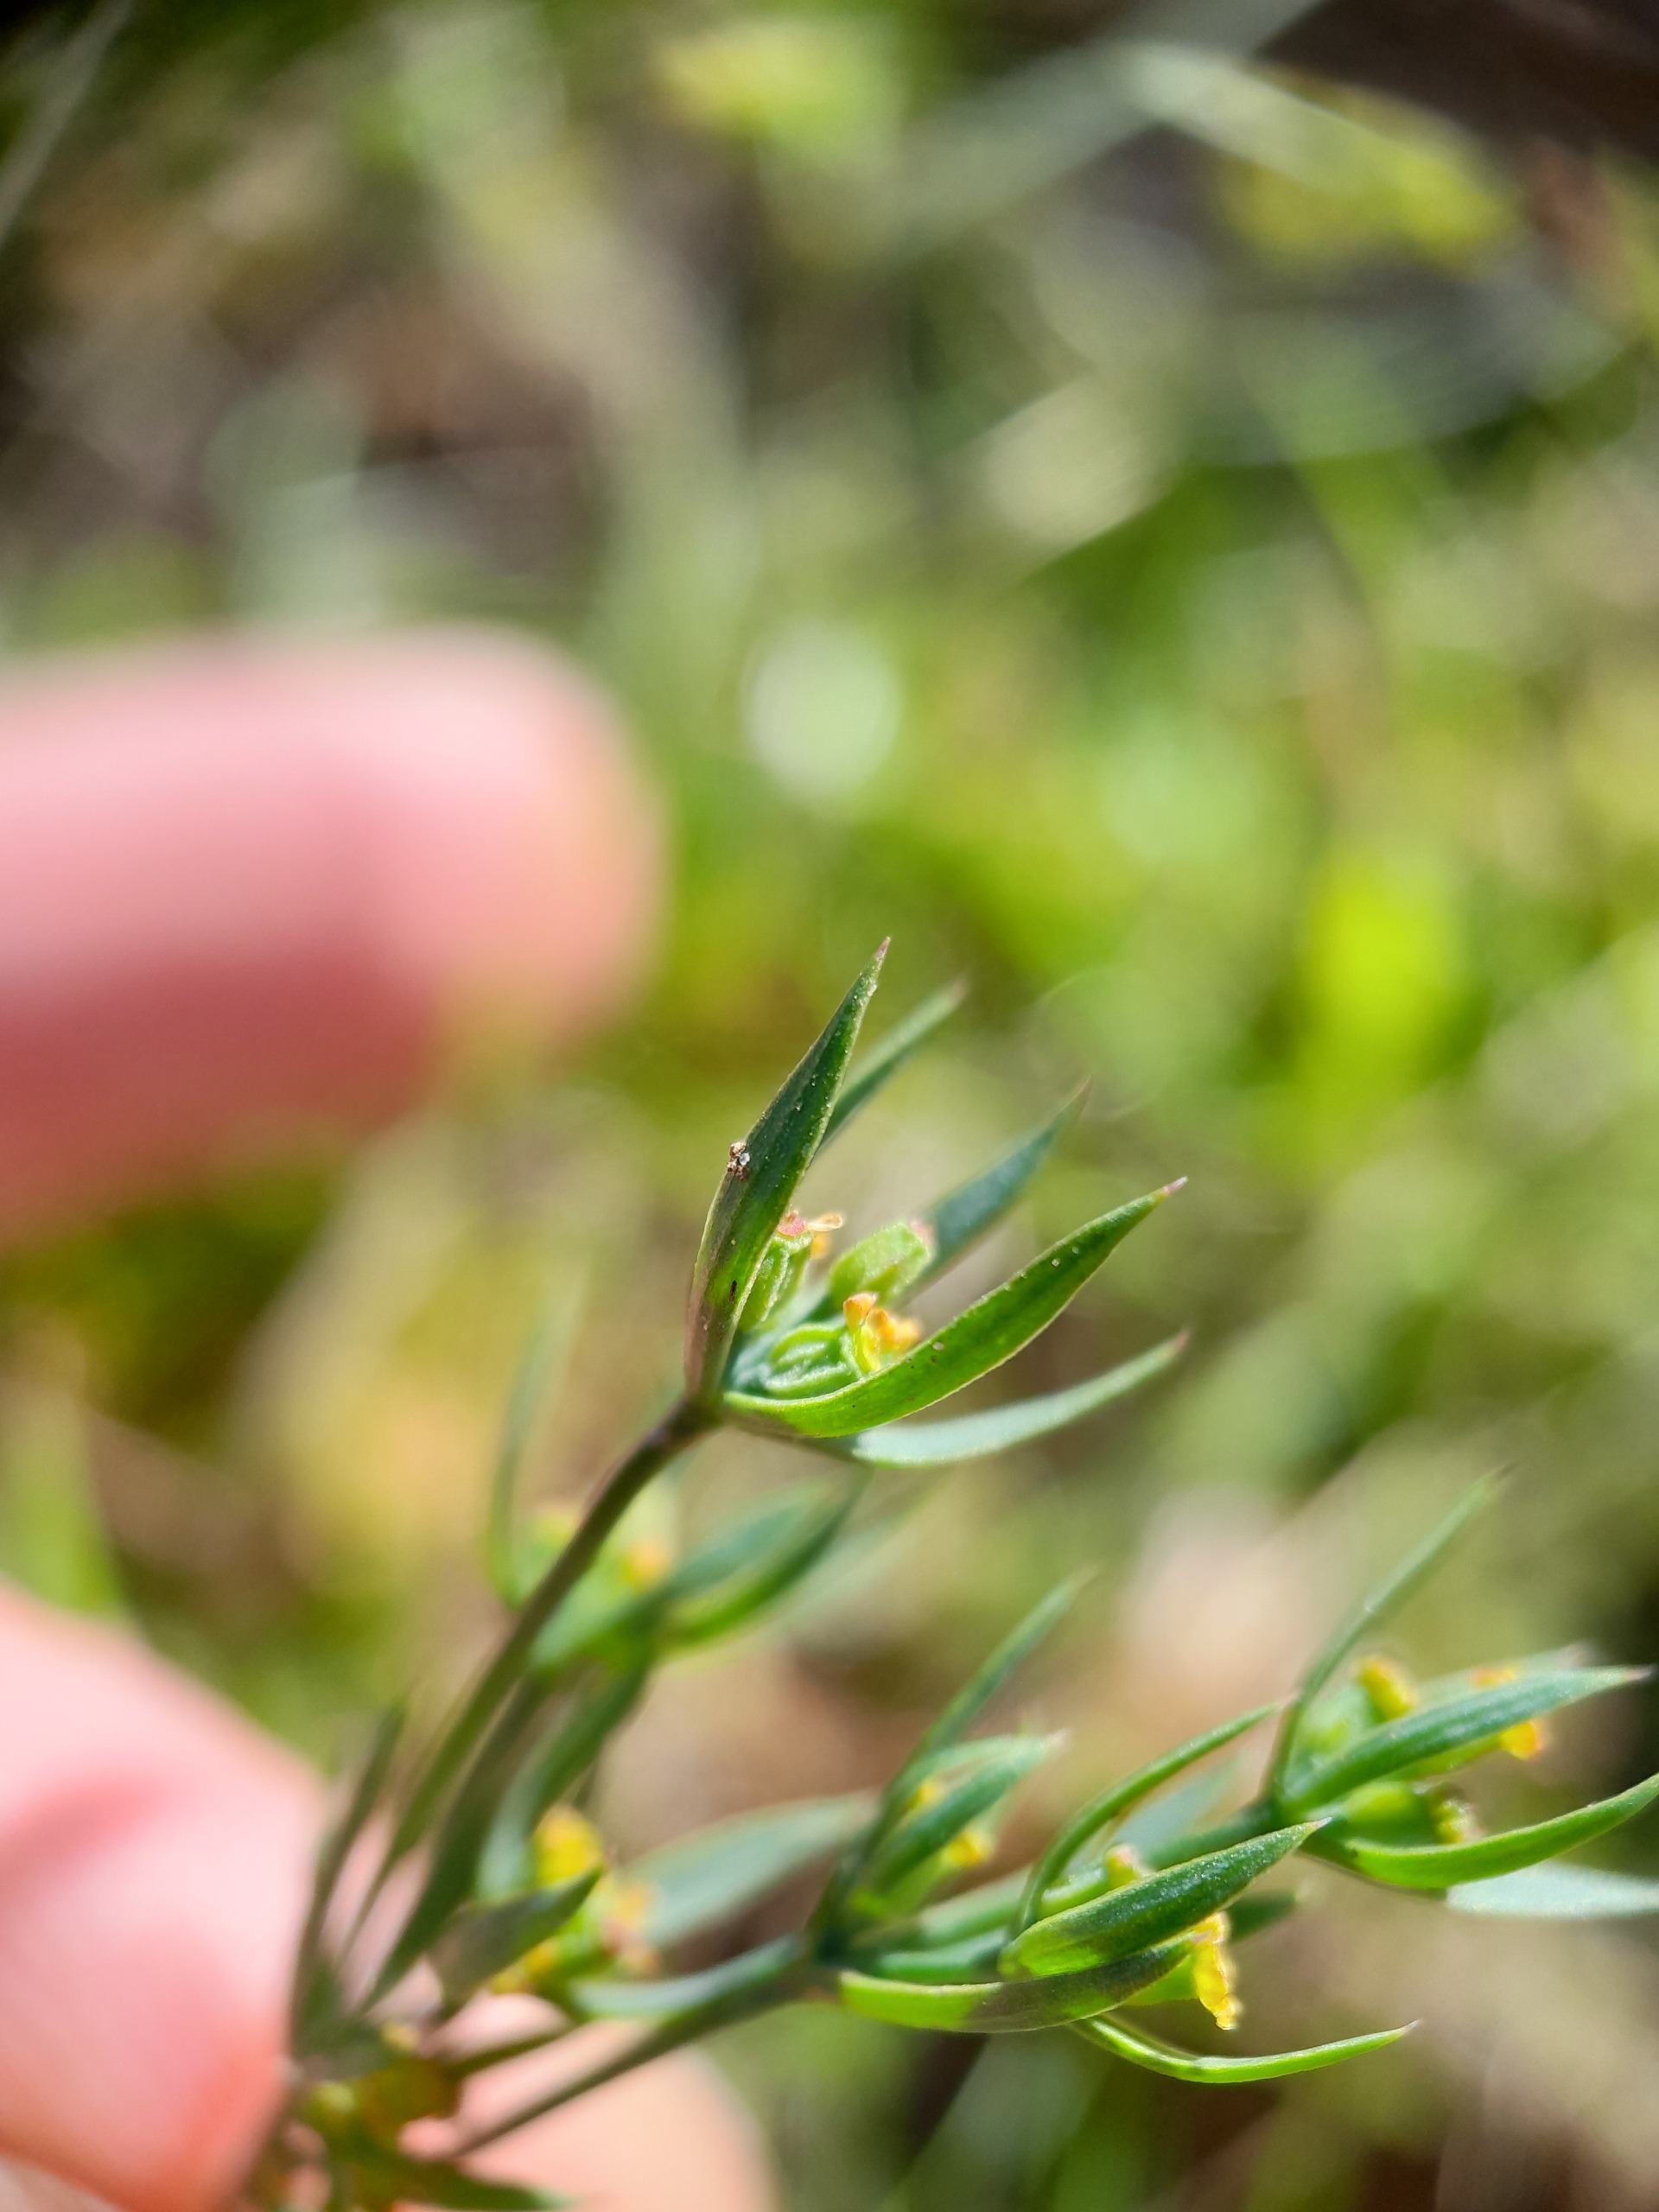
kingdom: Plantae
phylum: Tracheophyta
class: Magnoliopsida
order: Apiales
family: Apiaceae
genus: Bupleurum
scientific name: Bupleurum tenuissimum
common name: Smalbladet hareøre
